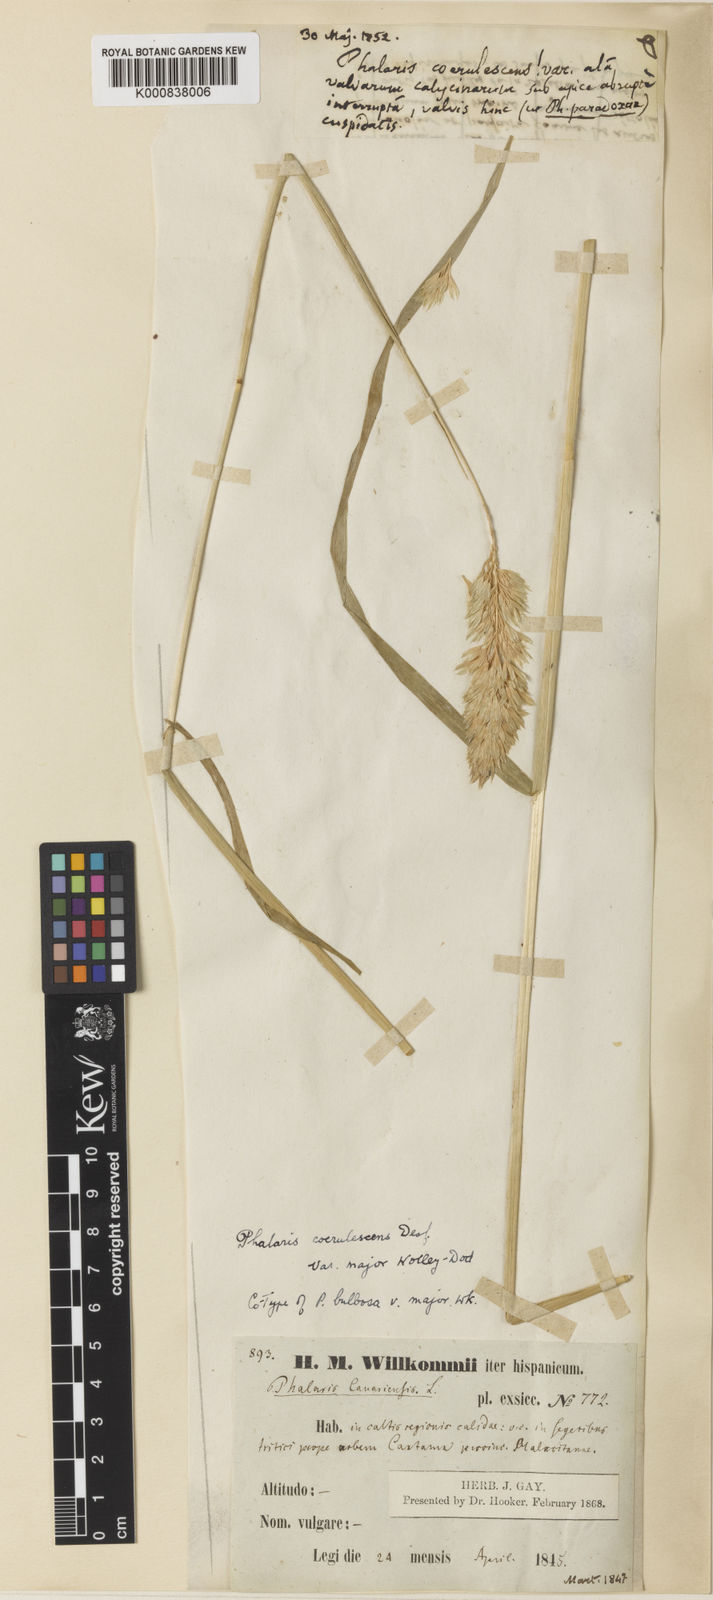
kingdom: Plantae
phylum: Tracheophyta
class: Liliopsida
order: Poales
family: Poaceae
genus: Phalaris
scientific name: Phalaris coerulescens
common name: Sunolgrass
